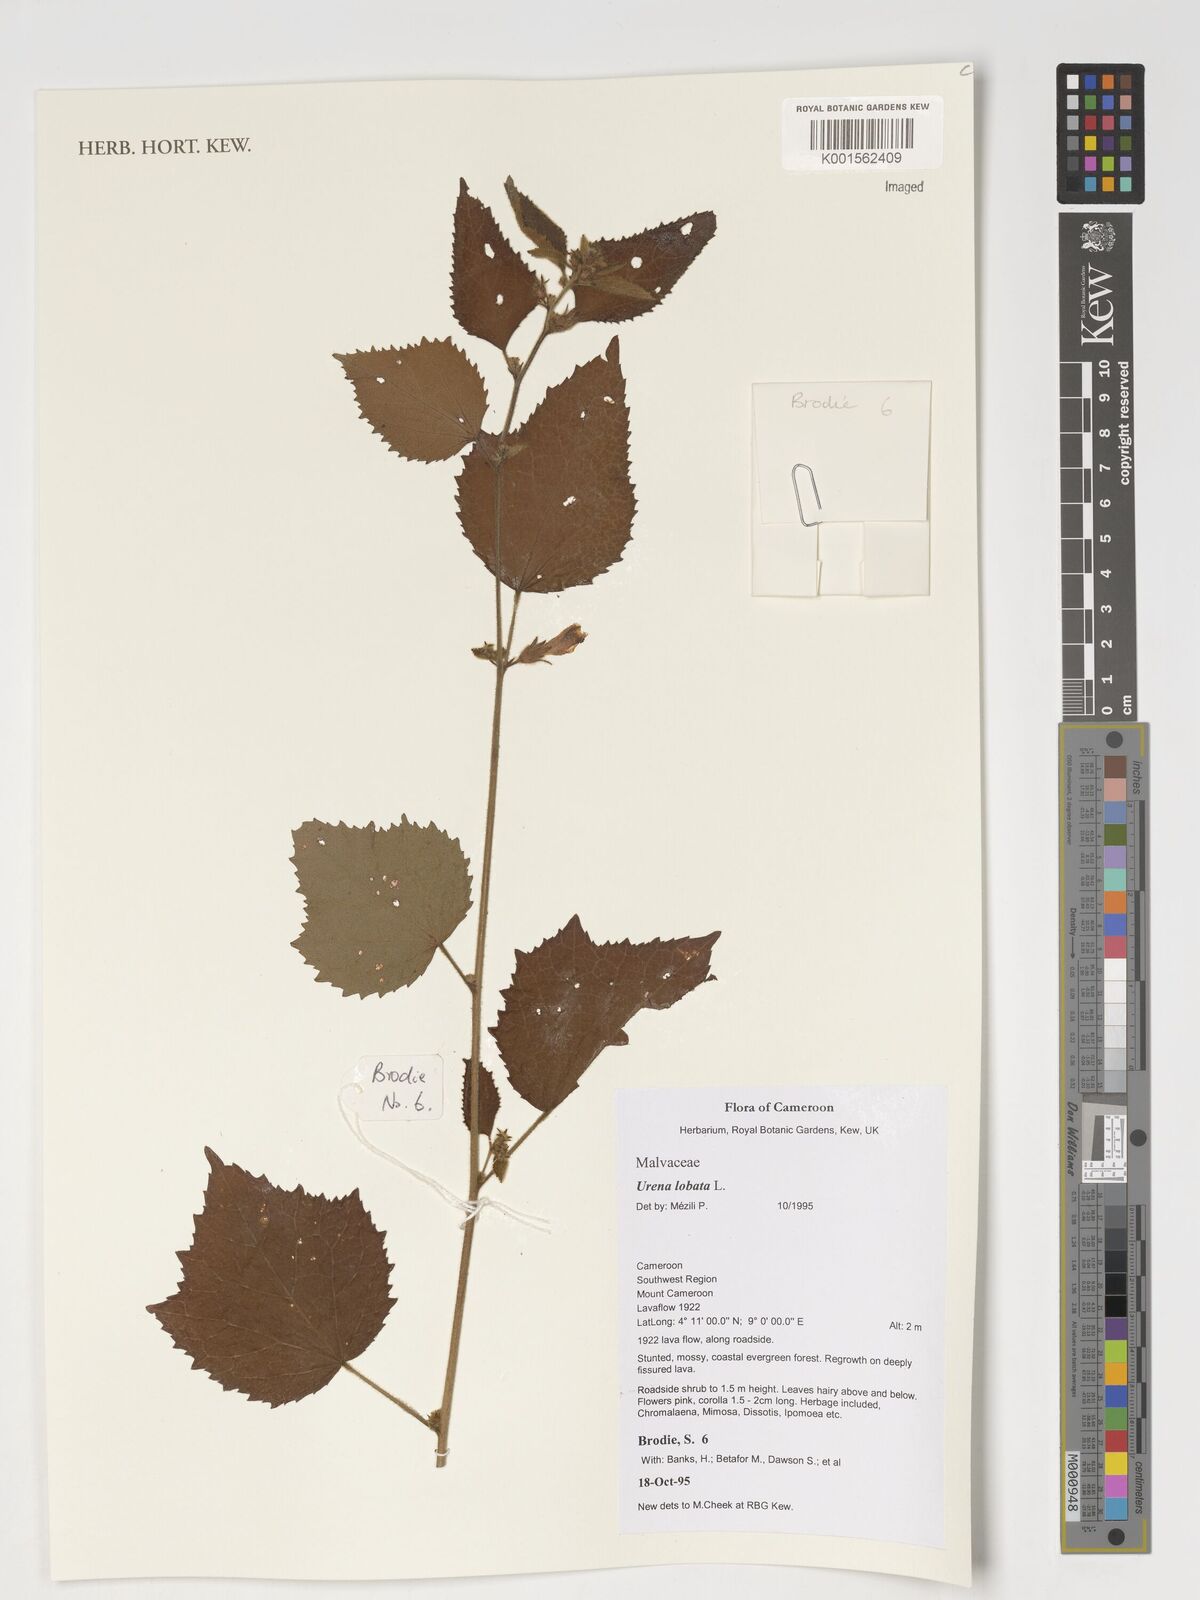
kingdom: Plantae
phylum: Tracheophyta
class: Magnoliopsida
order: Malvales
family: Malvaceae
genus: Urena
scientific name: Urena lobata
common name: Caesarweed
